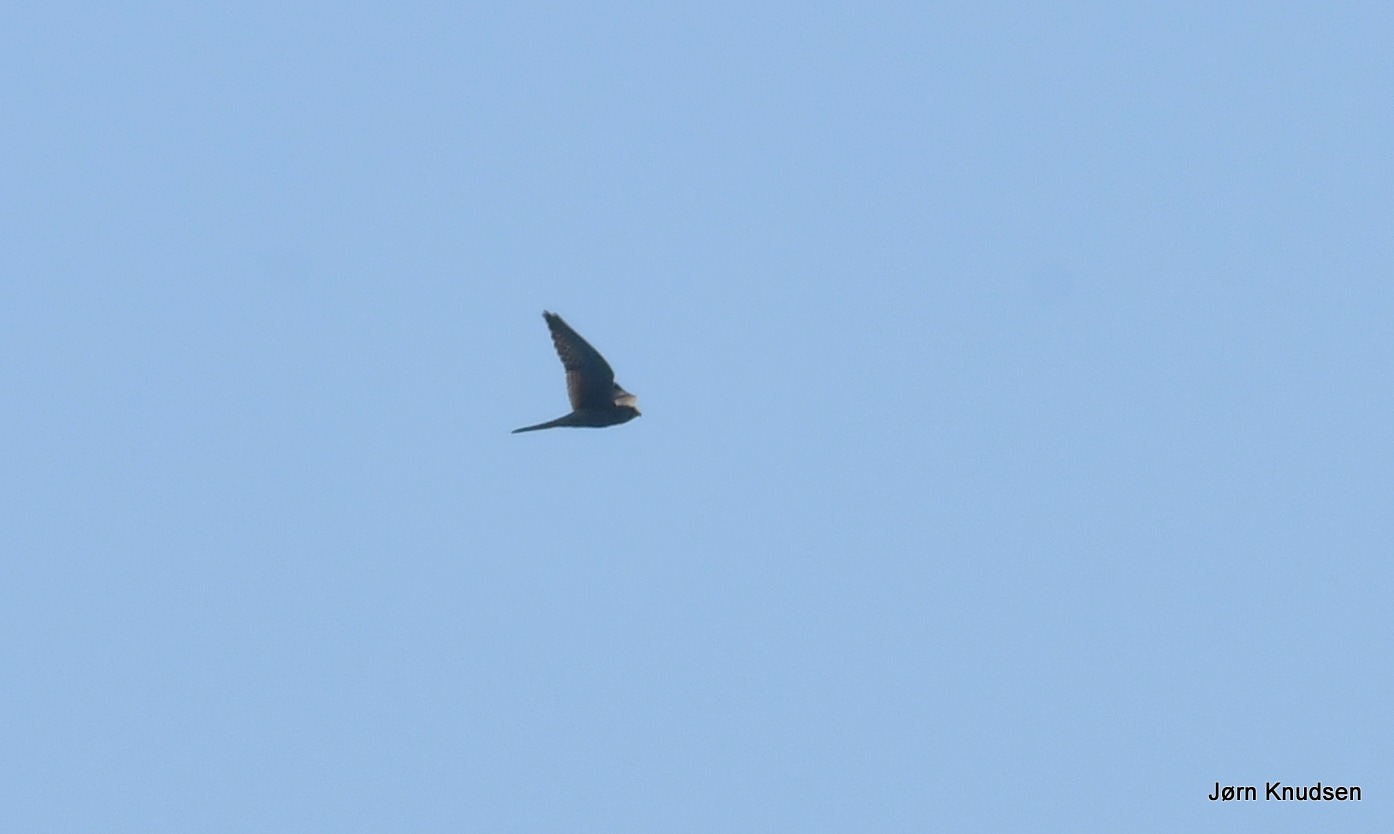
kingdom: Animalia
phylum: Chordata
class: Aves
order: Falconiformes
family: Falconidae
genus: Falco
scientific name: Falco tinnunculus
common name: Tårnfalk
